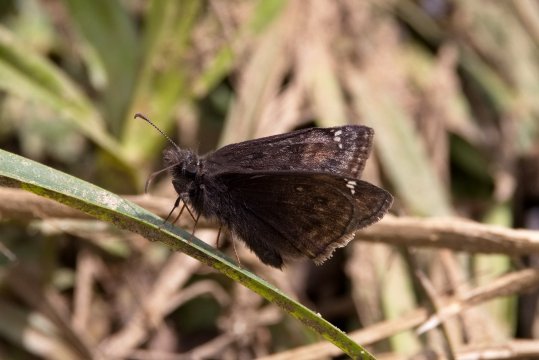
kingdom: Animalia
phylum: Arthropoda
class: Insecta
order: Lepidoptera
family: Hesperiidae
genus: Gesta
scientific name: Gesta
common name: Juvenal's Duskywing
